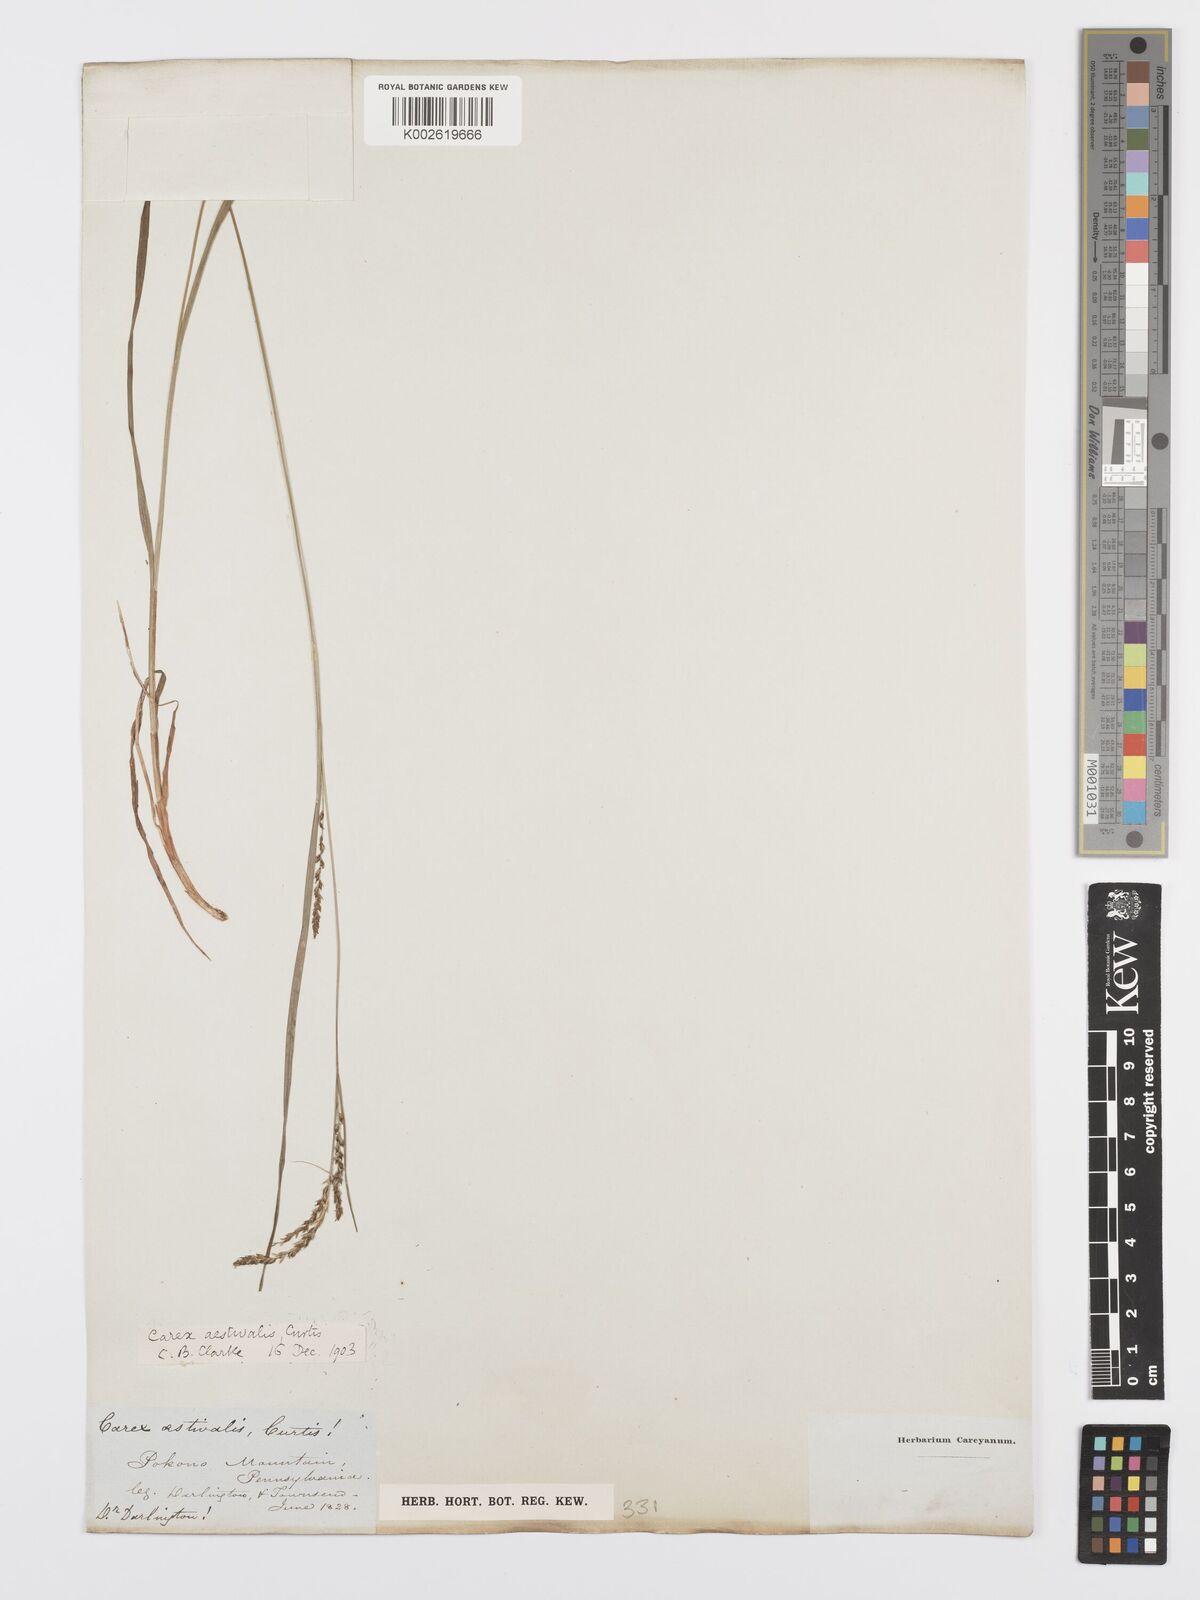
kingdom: Plantae
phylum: Tracheophyta
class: Liliopsida
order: Poales
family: Cyperaceae
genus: Carex
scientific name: Carex aestivalis
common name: Summer sedge
